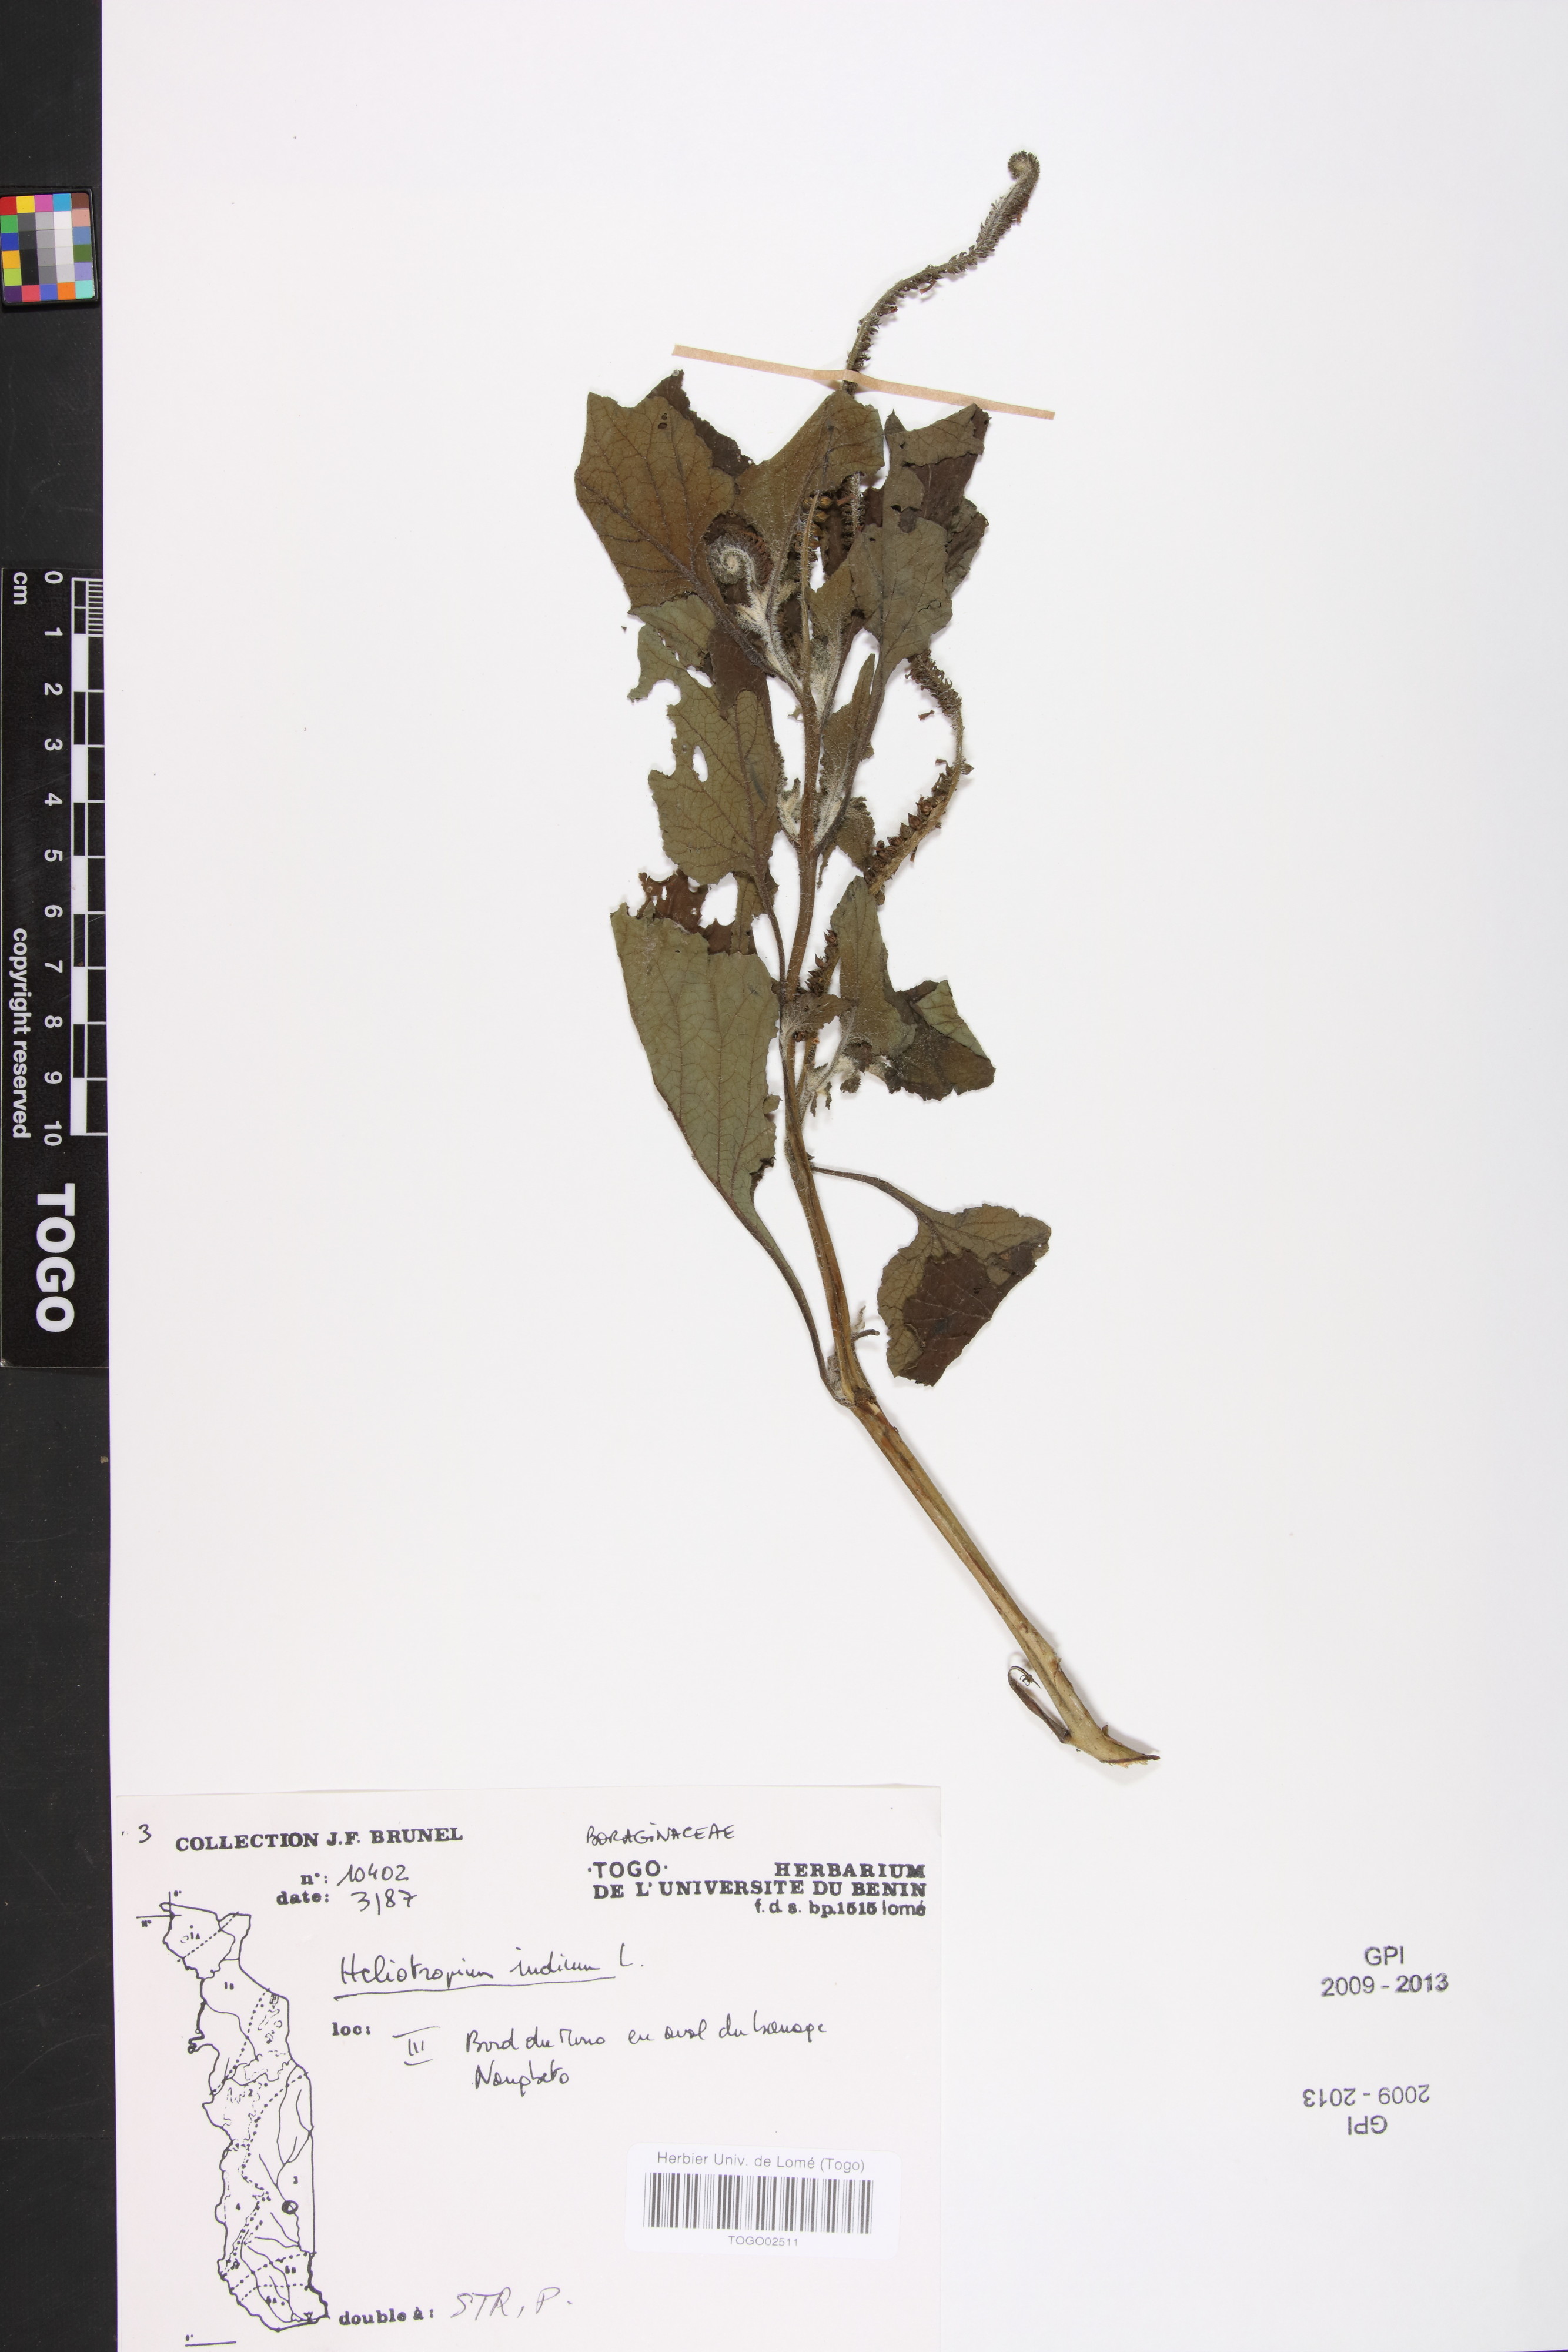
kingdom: Plantae
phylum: Tracheophyta
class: Magnoliopsida
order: Boraginales
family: Heliotropiaceae
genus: Heliotropium
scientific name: Heliotropium indicum
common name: Indian heliotrope
